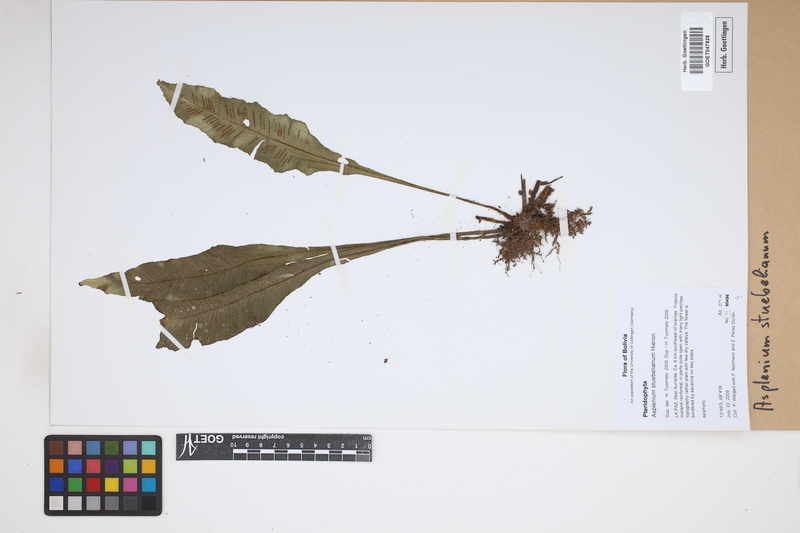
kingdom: Plantae
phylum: Tracheophyta
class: Polypodiopsida
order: Polypodiales
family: Aspleniaceae
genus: Asplenium
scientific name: Asplenium stuebelianum
